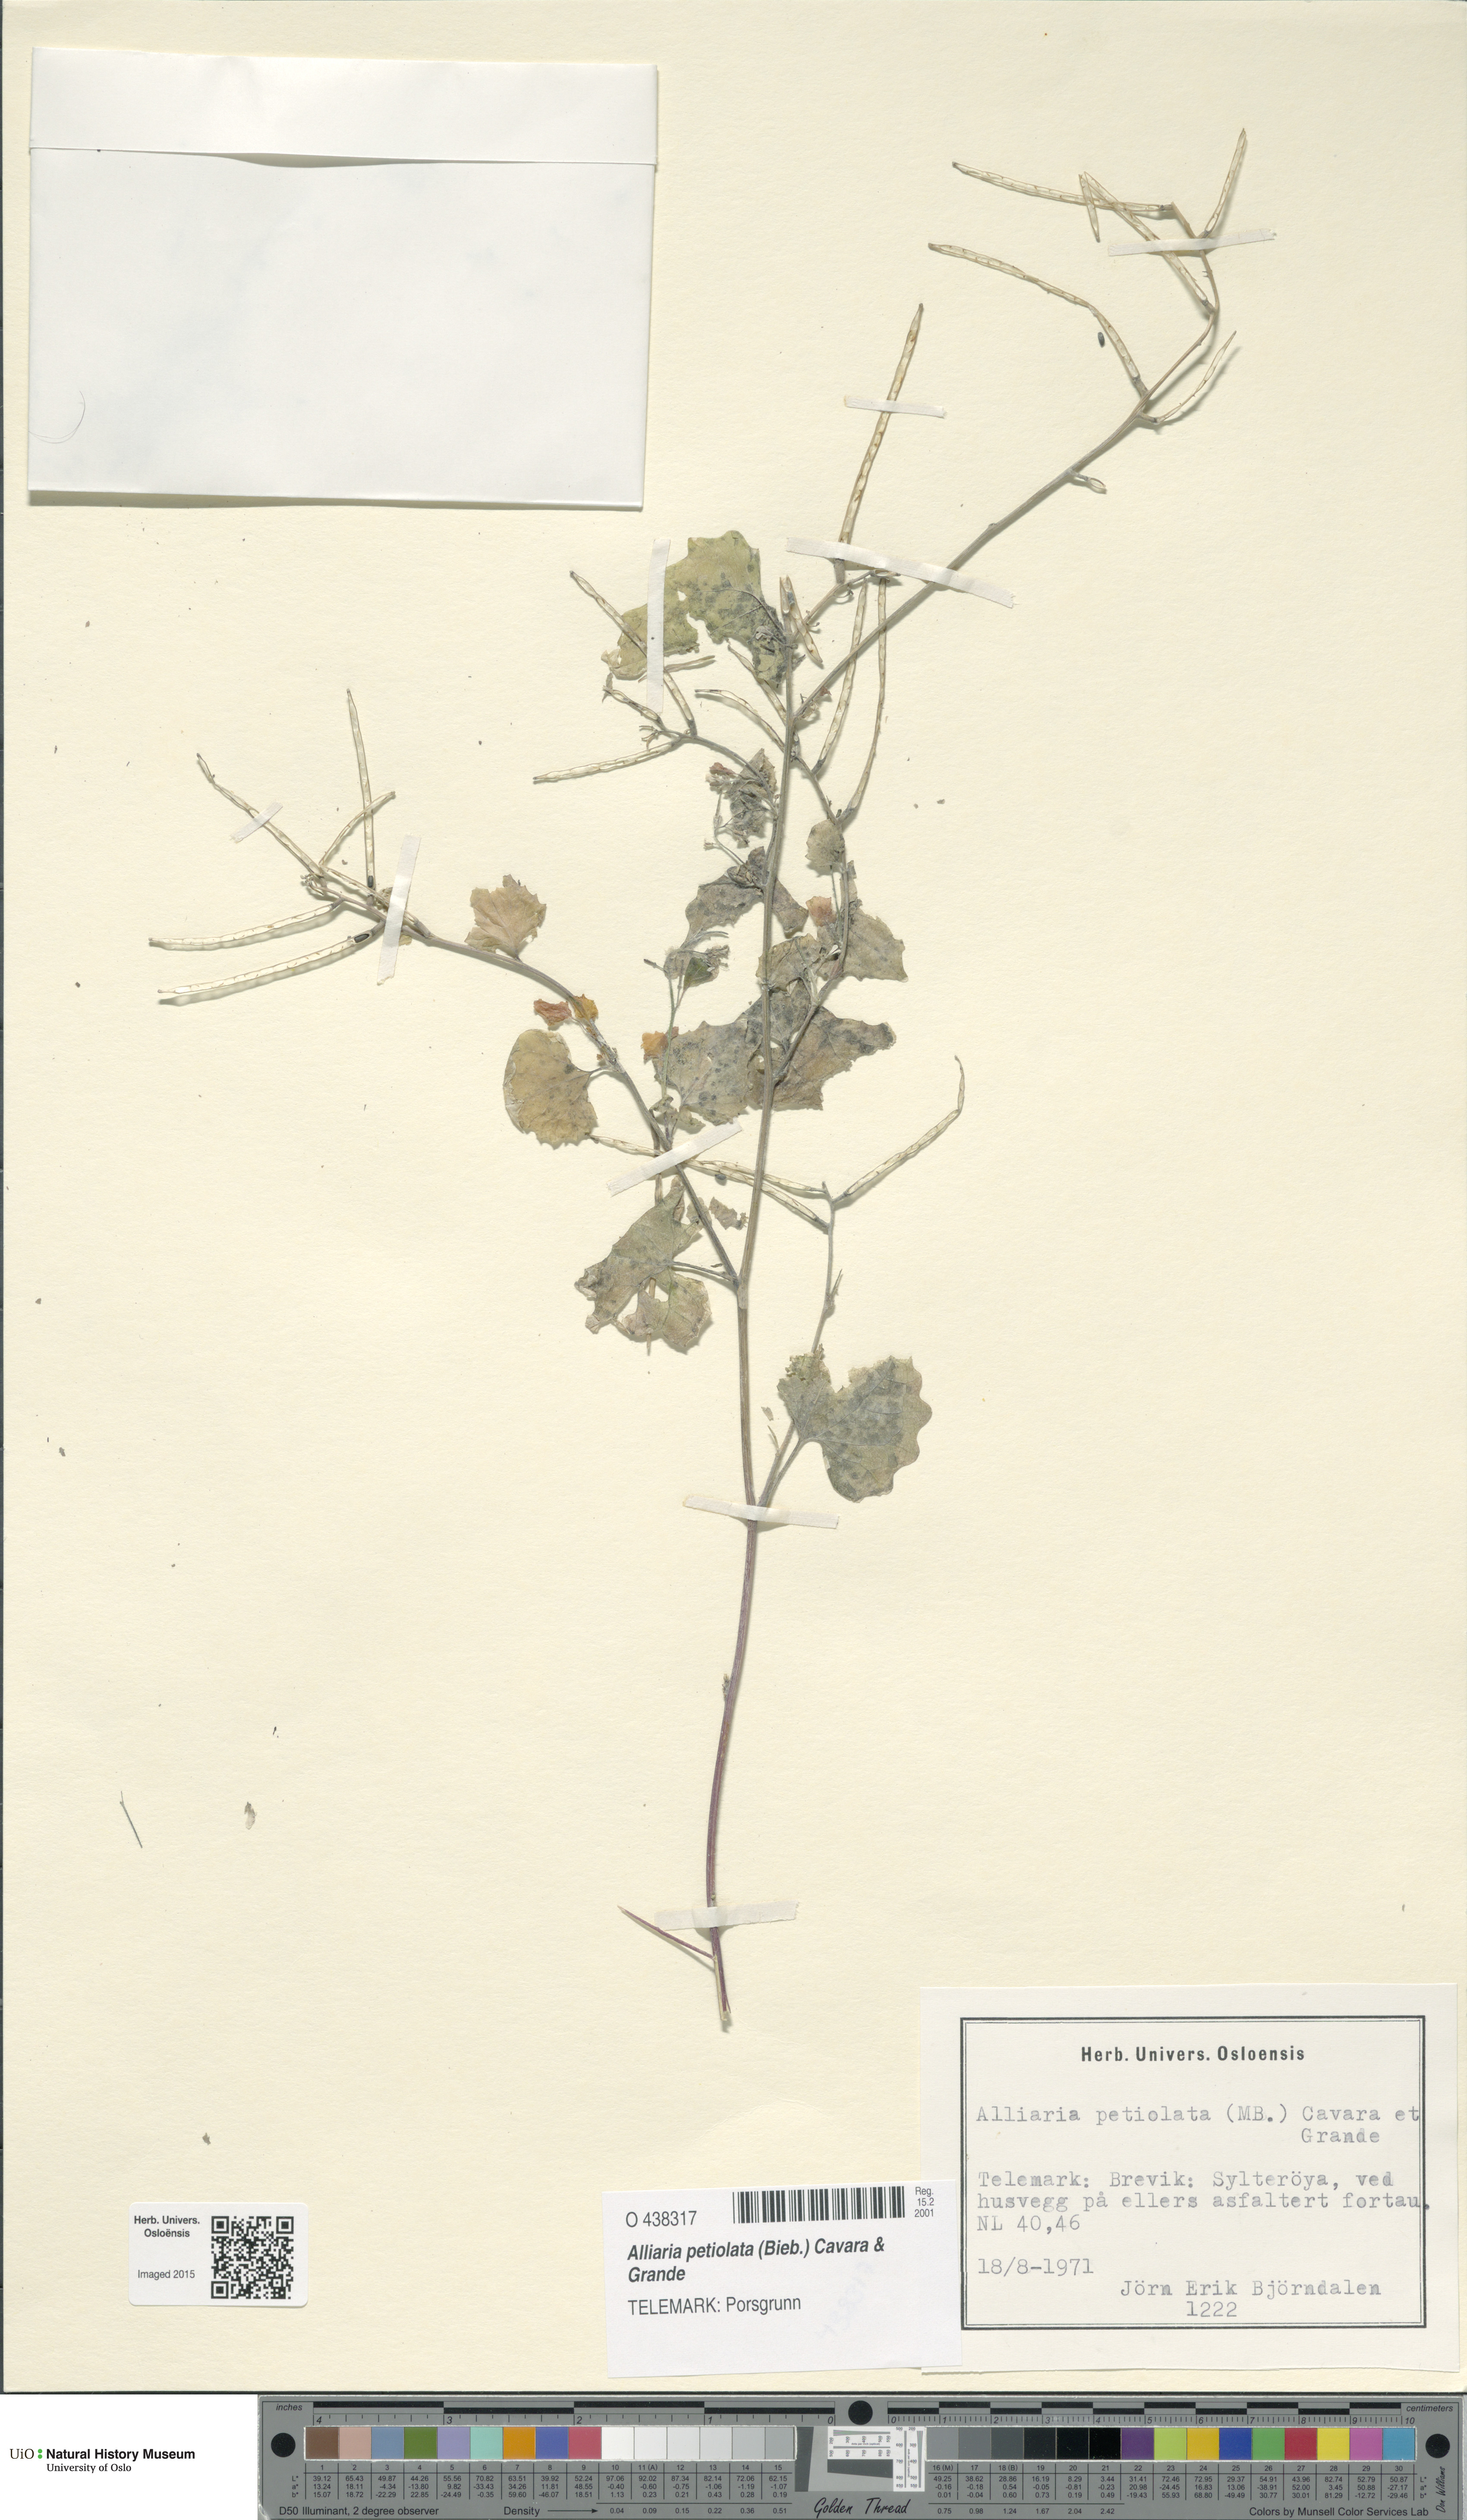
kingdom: Plantae
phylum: Tracheophyta
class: Magnoliopsida
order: Brassicales
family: Brassicaceae
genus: Alliaria
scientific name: Alliaria petiolata
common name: Garlic mustard
